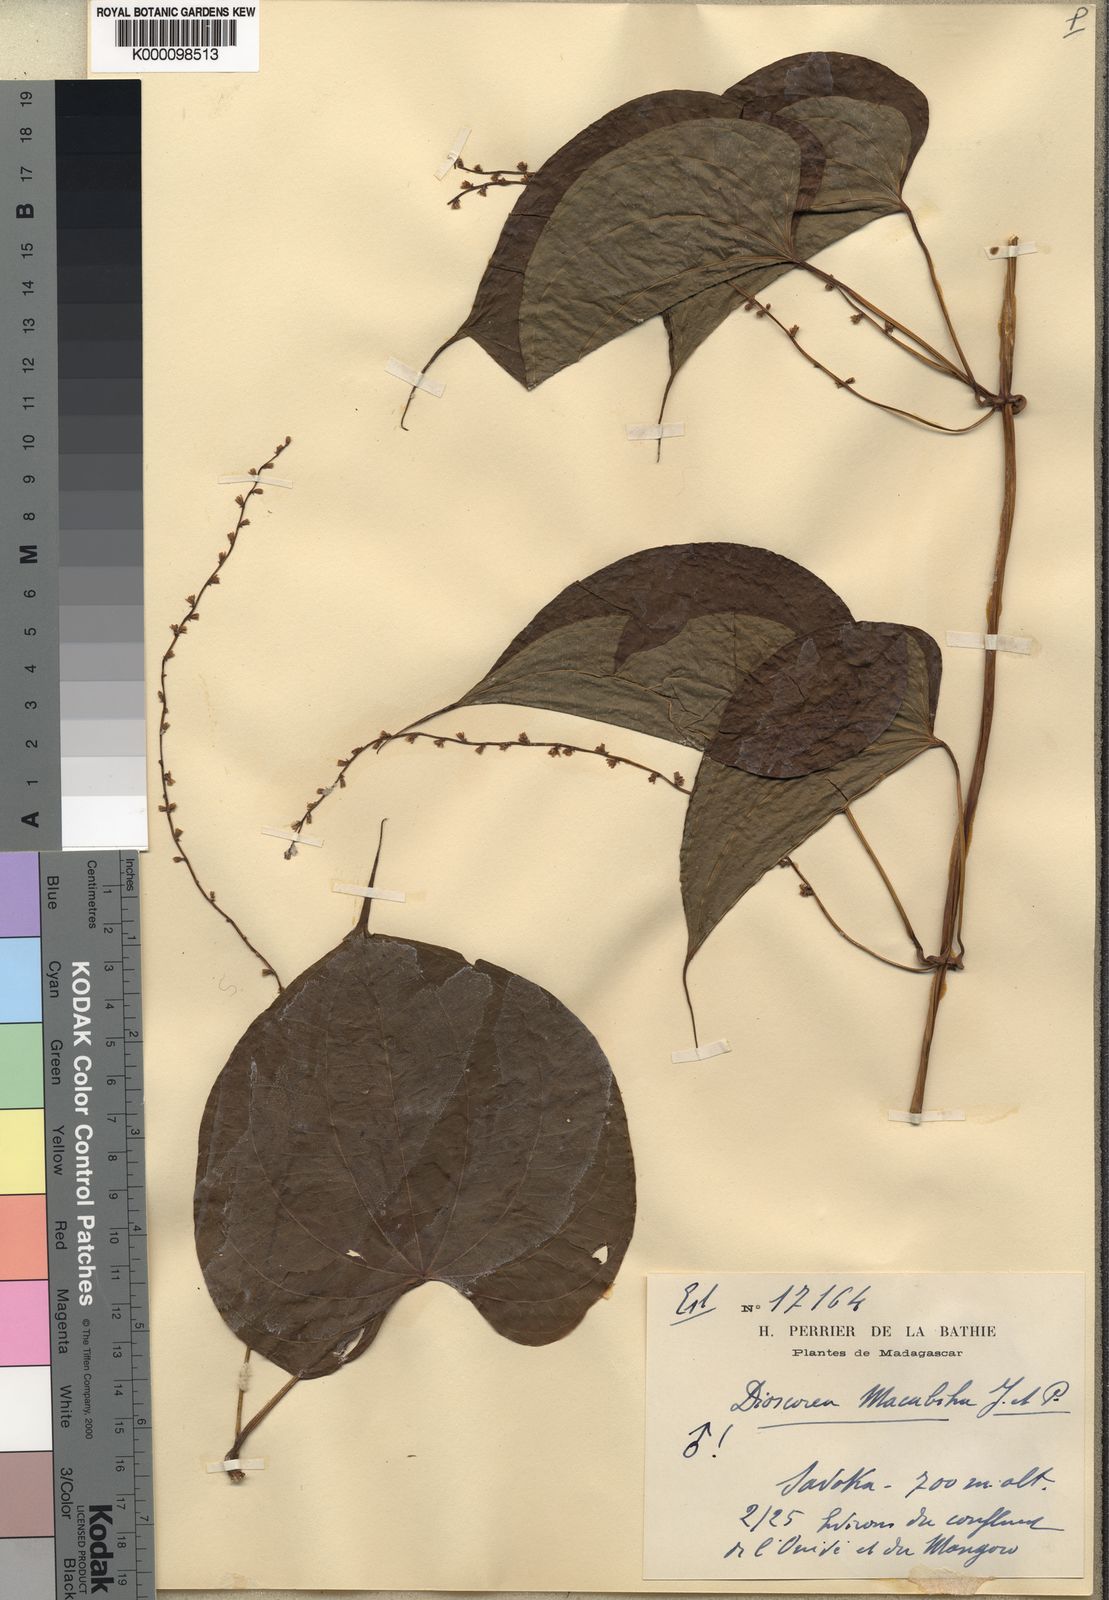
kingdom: Plantae
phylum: Tracheophyta
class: Liliopsida
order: Dioscoreales
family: Dioscoreaceae
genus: Dioscorea
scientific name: Dioscorea sansibarensis
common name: Zanzibar yam
